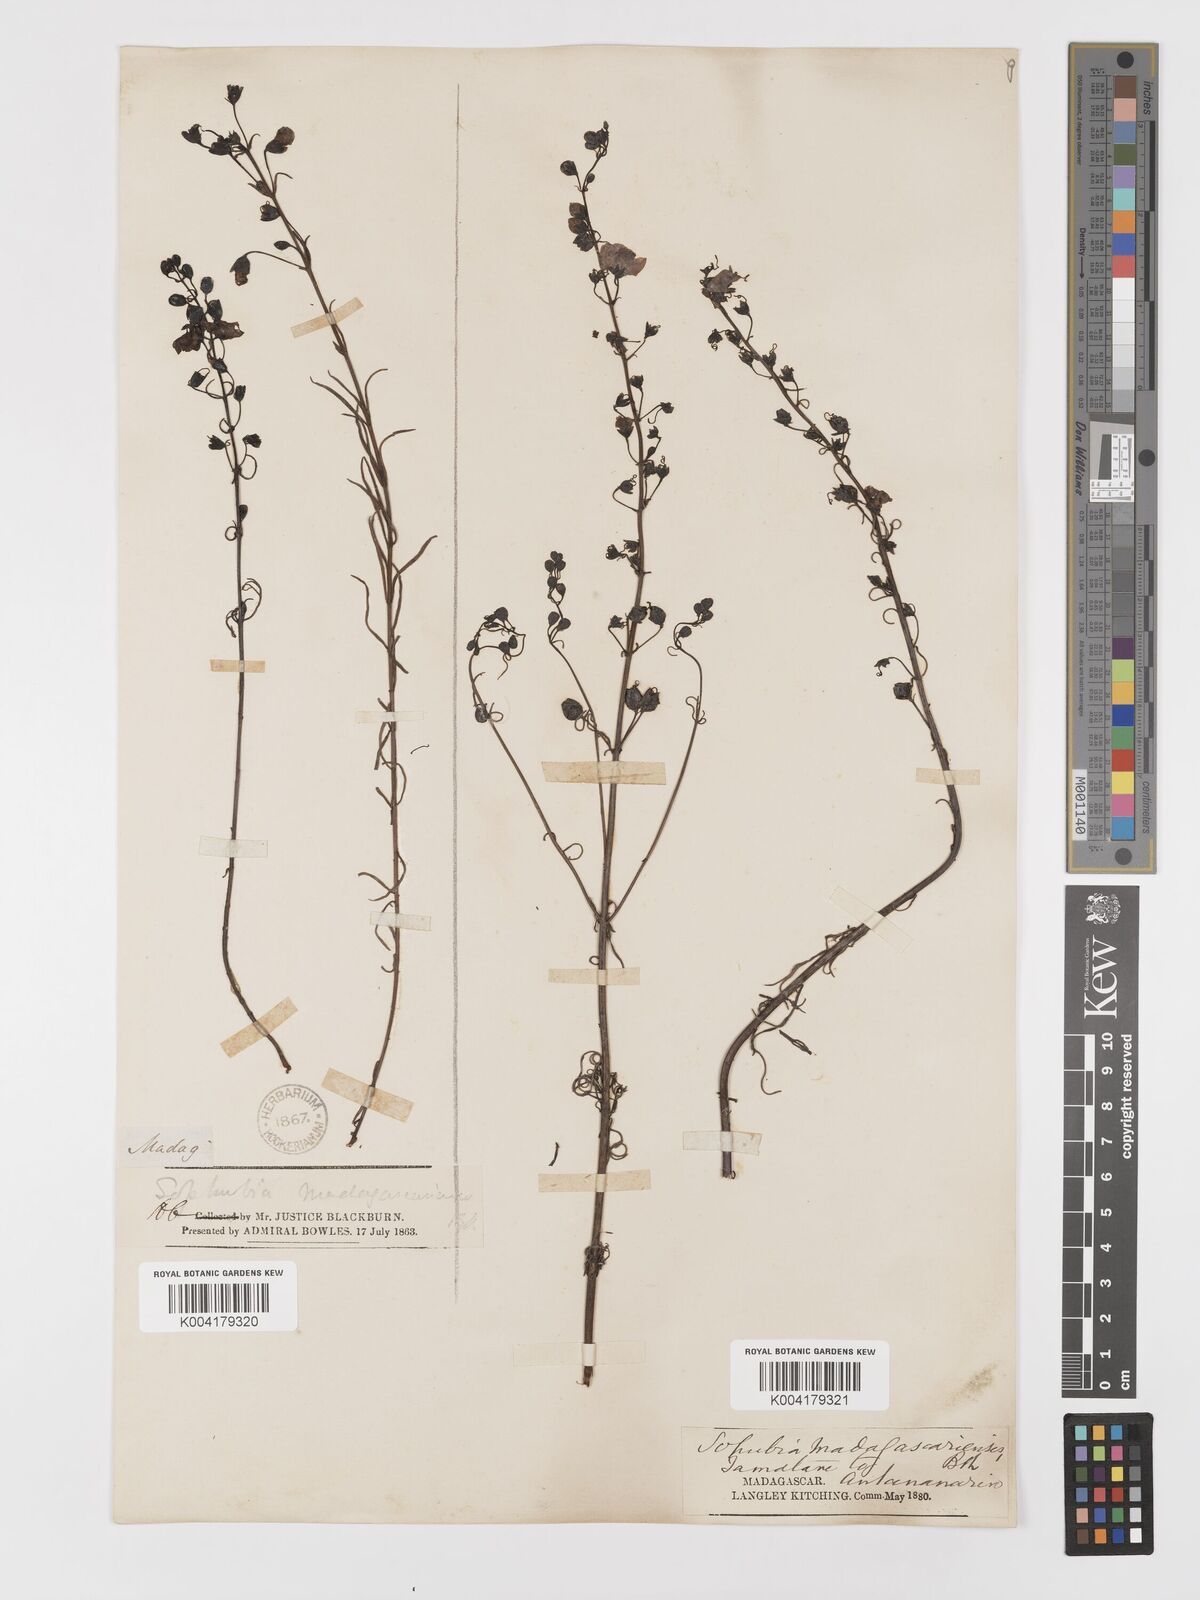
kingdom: Plantae
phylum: Tracheophyta
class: Magnoliopsida
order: Lamiales
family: Orobanchaceae
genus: Sopubia
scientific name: Sopubia trifida
